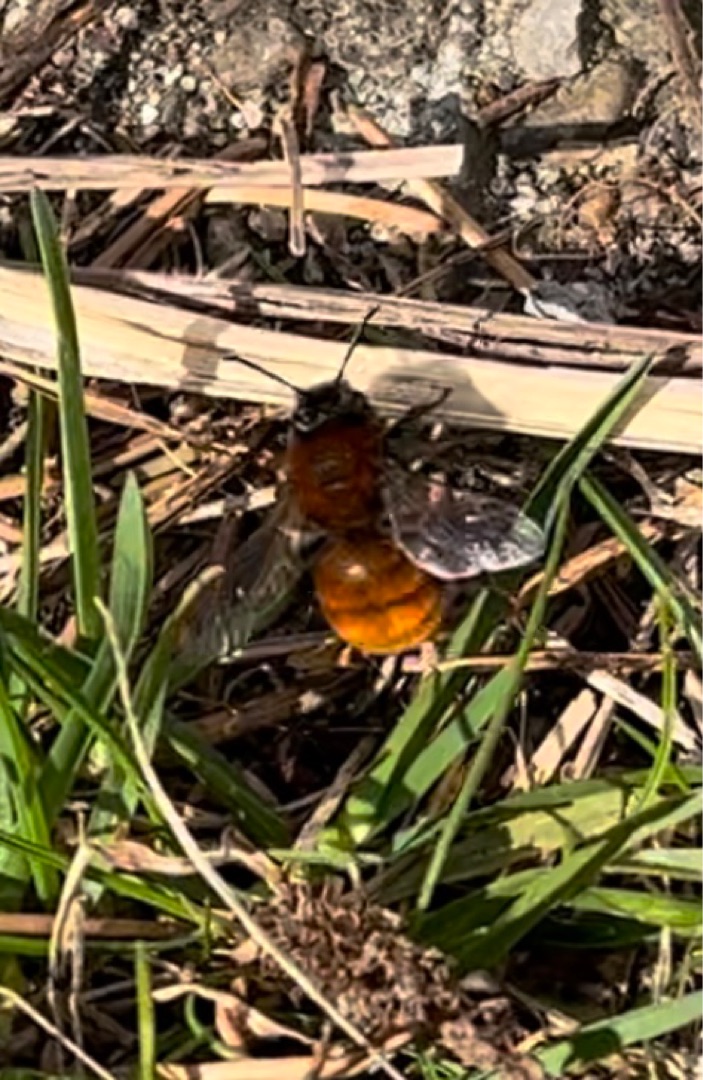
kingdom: Animalia
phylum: Arthropoda
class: Insecta
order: Hymenoptera
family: Andrenidae
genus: Andrena
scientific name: Andrena fulva
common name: Rødpelset jordbi
